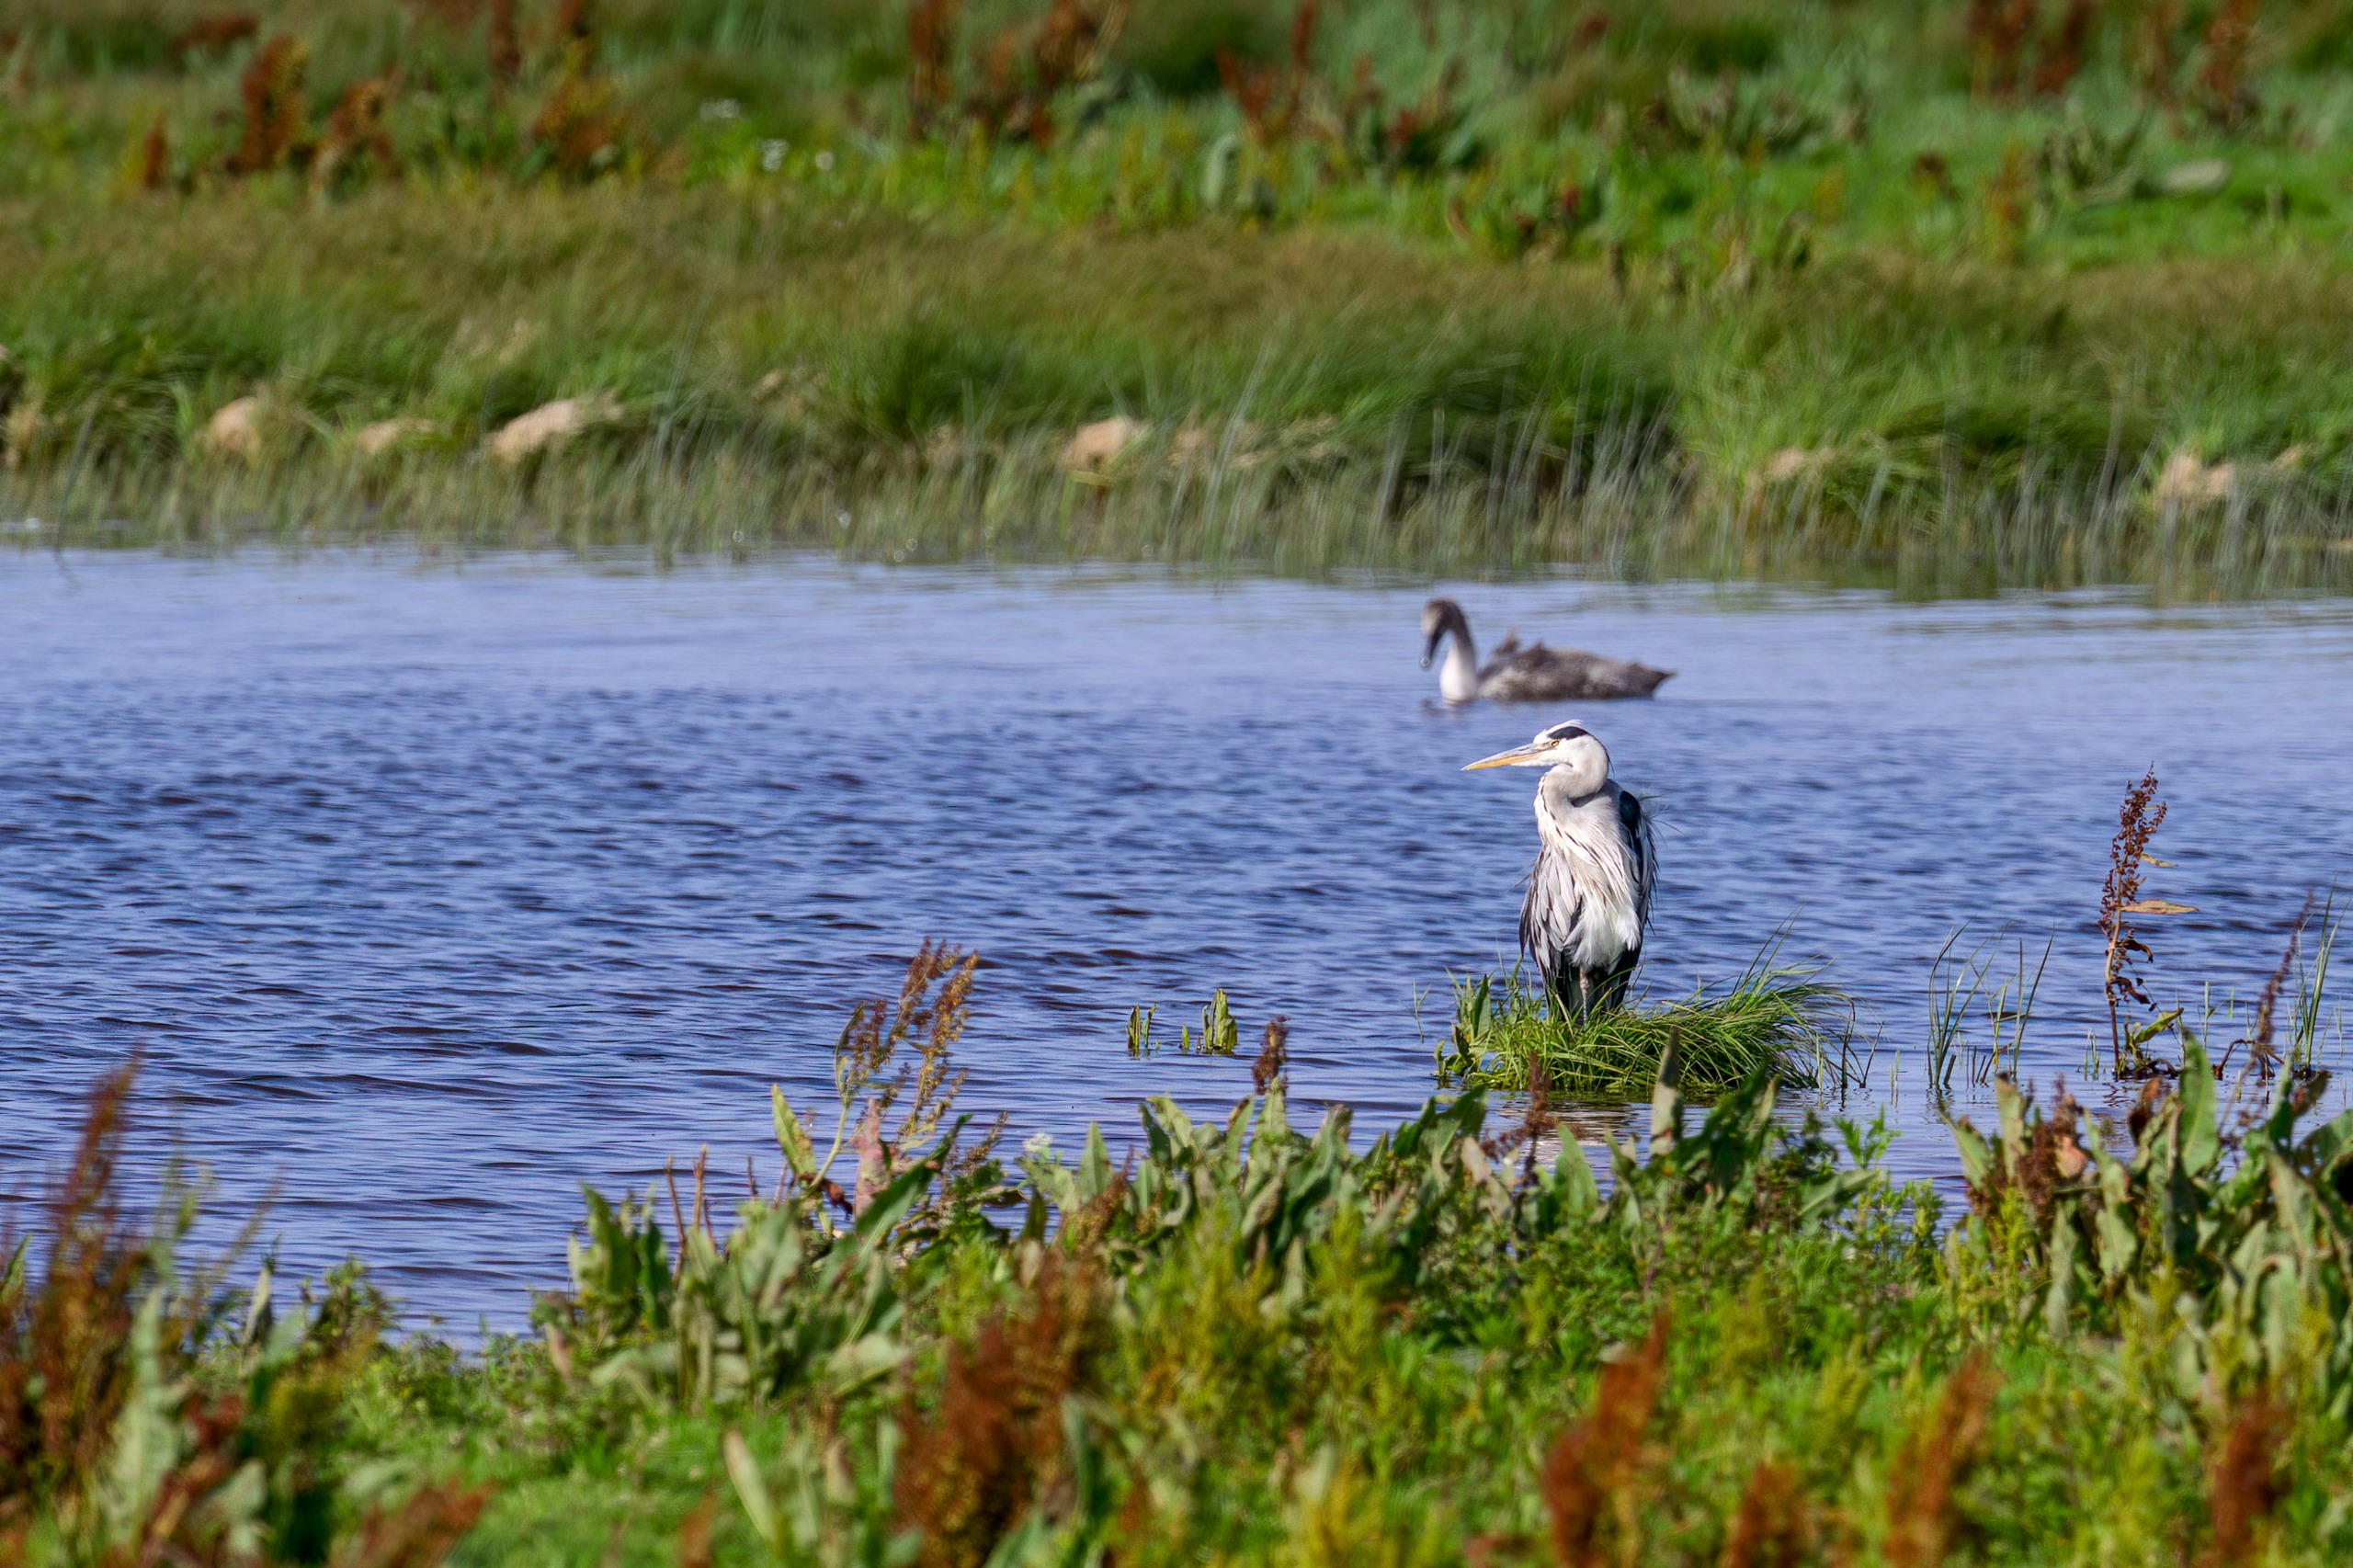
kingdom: Animalia
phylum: Chordata
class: Aves
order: Pelecaniformes
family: Ardeidae
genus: Ardea
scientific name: Ardea cinerea
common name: Fiskehejre
